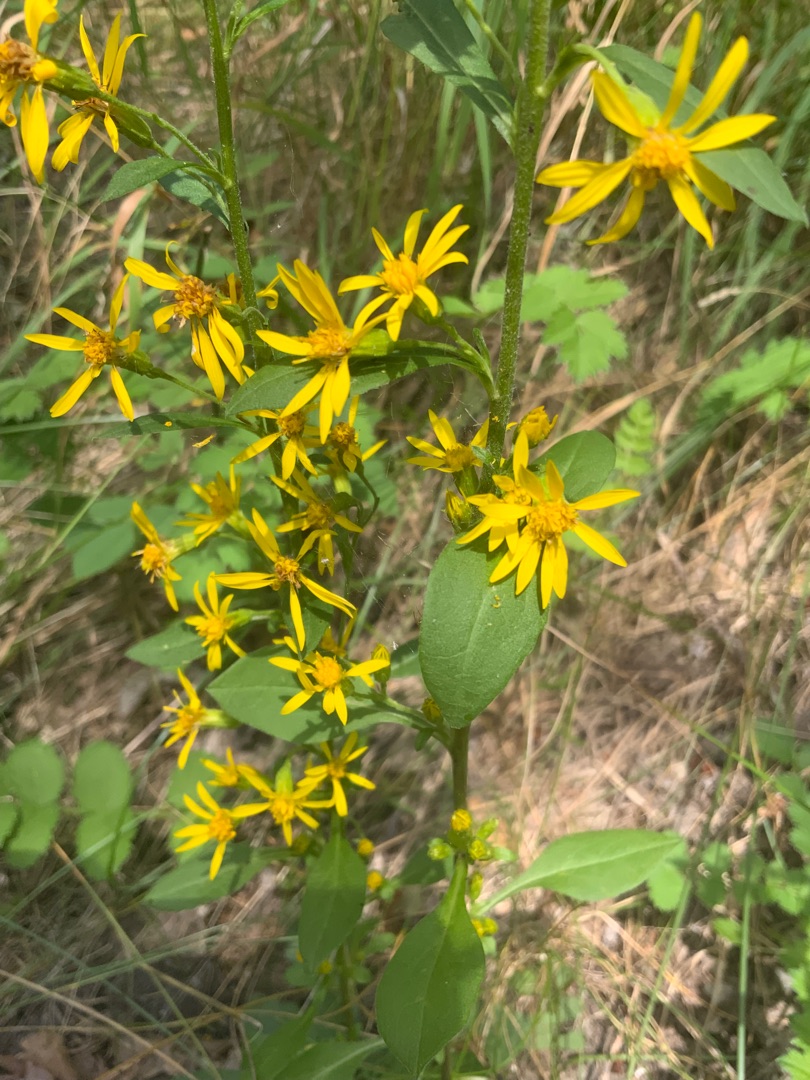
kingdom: Plantae
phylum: Tracheophyta
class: Magnoliopsida
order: Asterales
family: Asteraceae
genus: Solidago
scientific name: Solidago virgaurea
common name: Almindelig gyldenris
